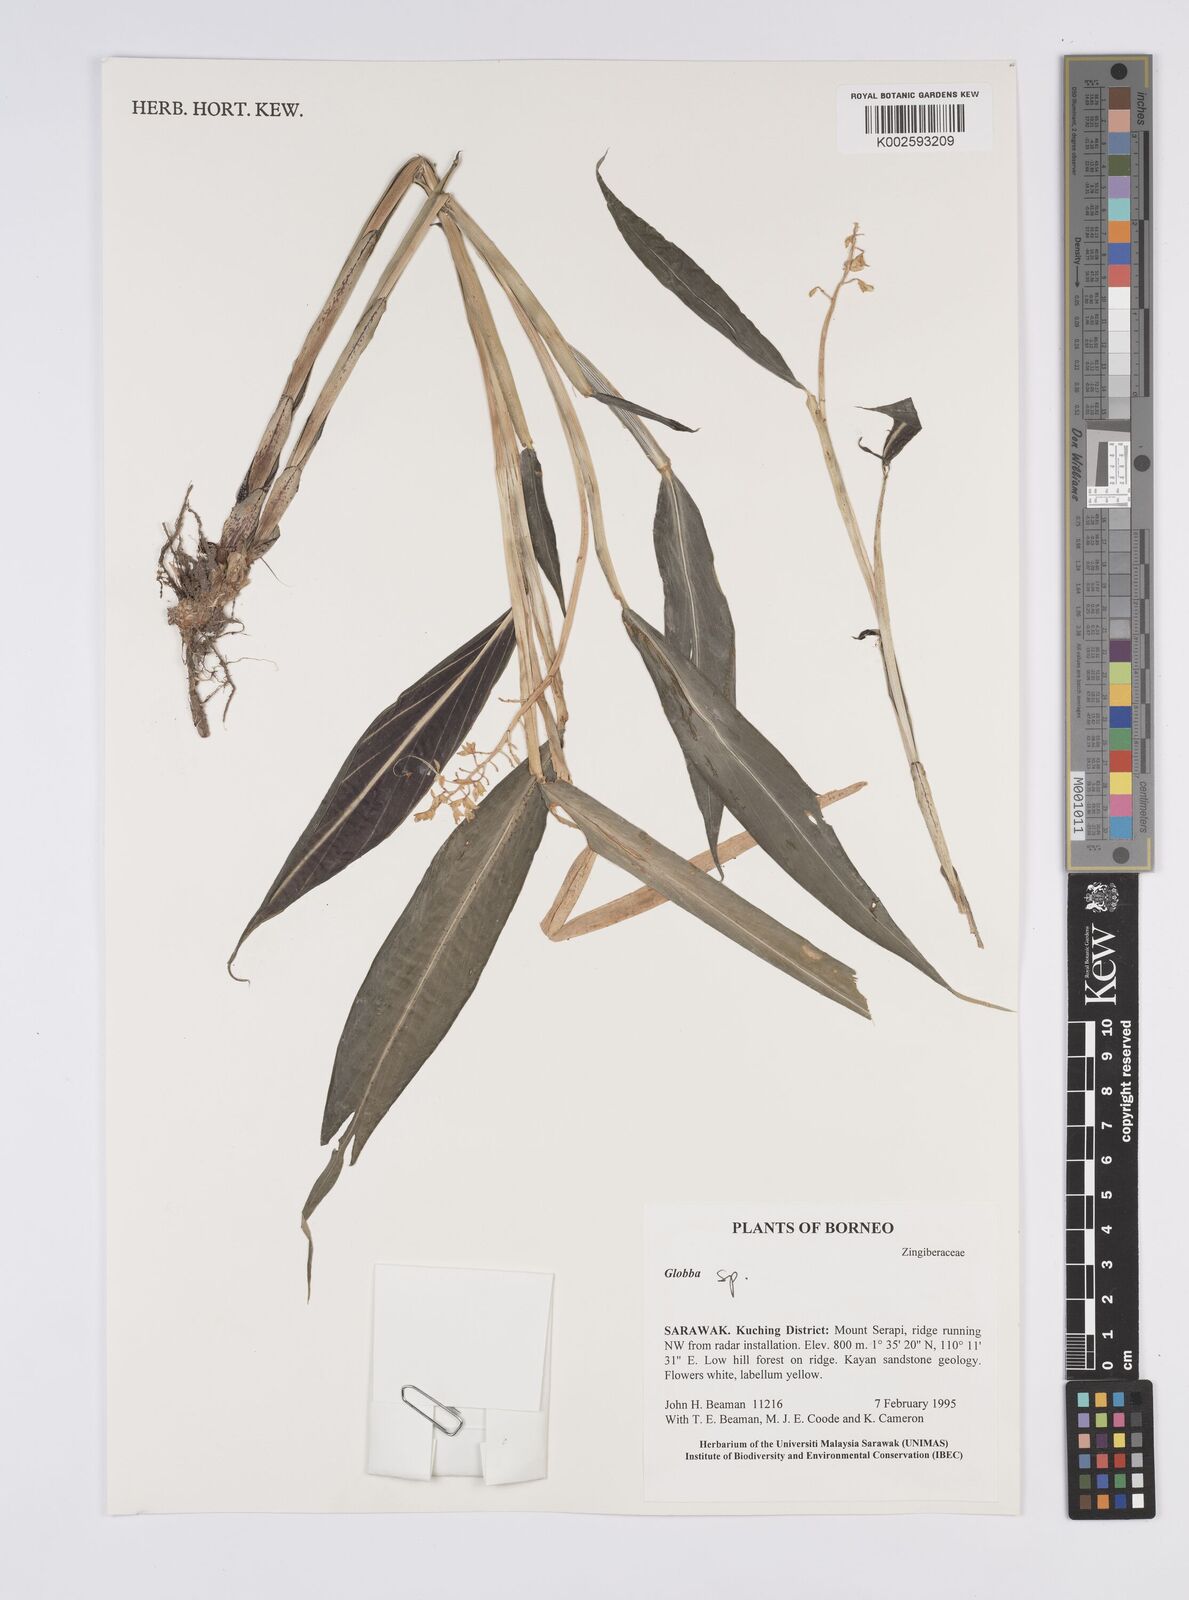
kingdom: Plantae
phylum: Tracheophyta
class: Liliopsida
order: Zingiberales
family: Zingiberaceae
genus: Globba
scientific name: Globba
